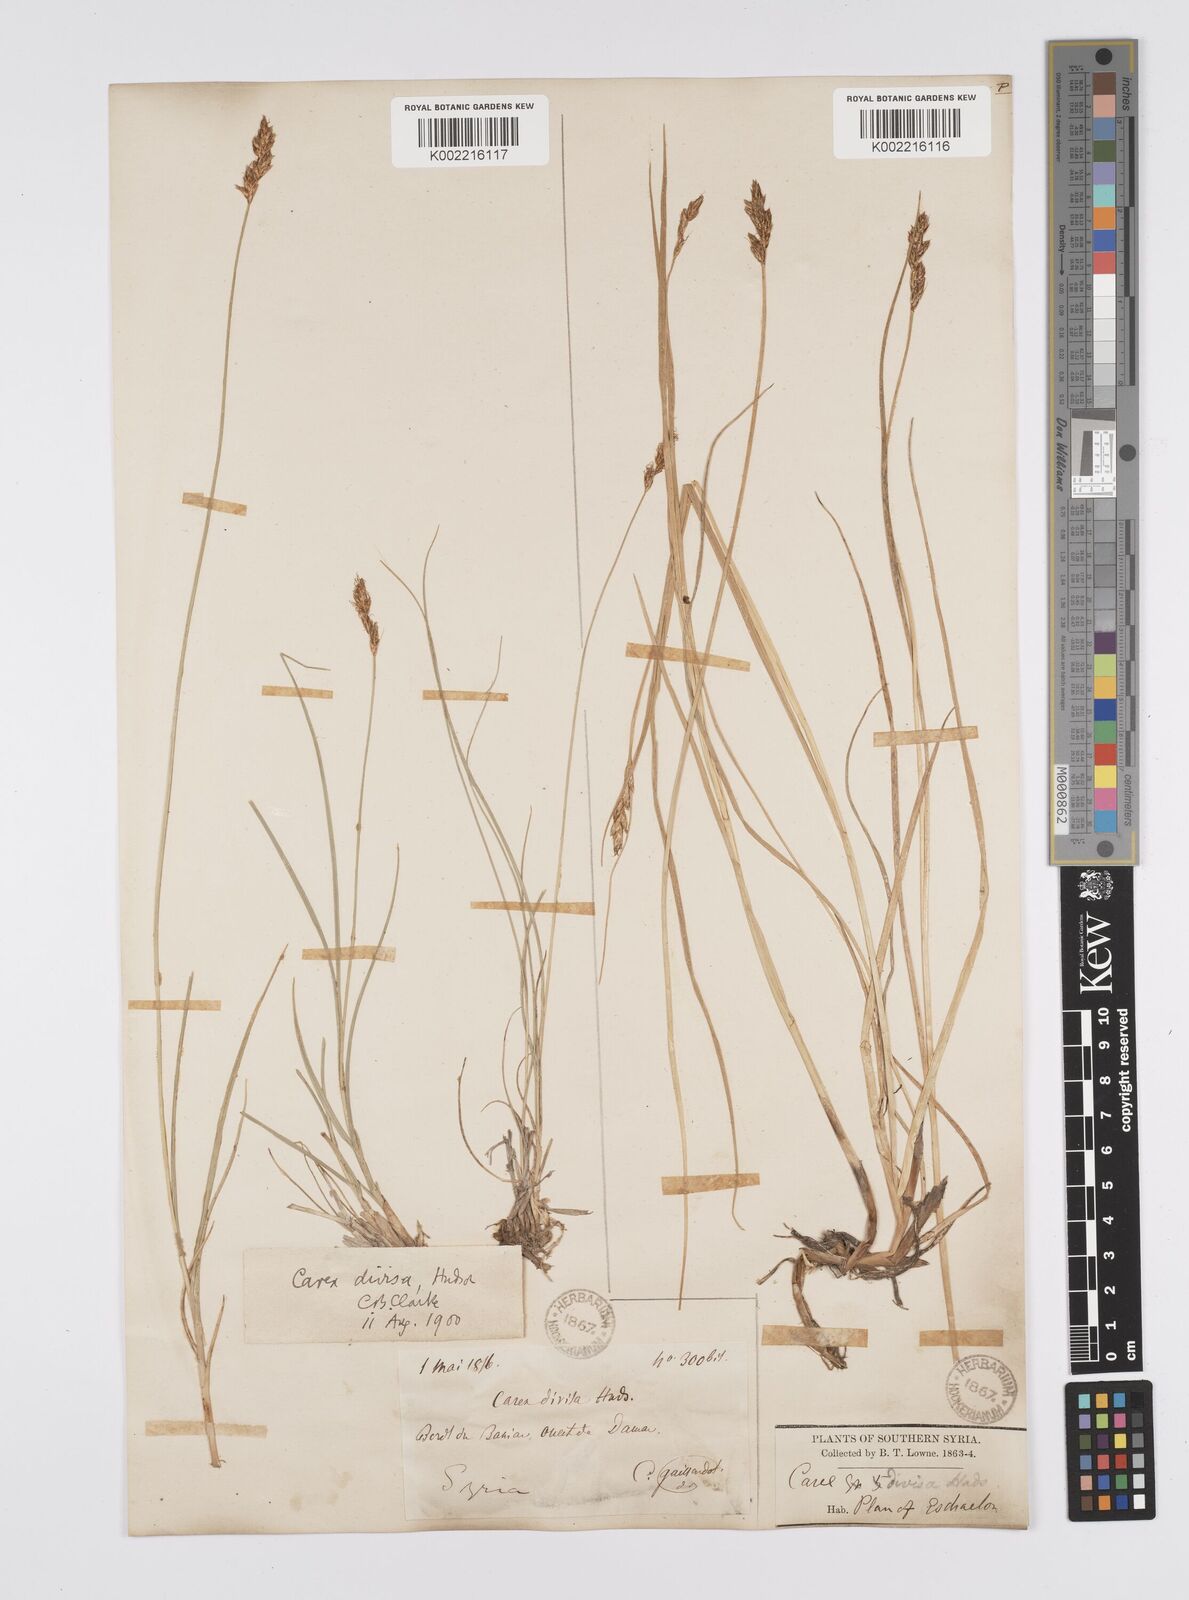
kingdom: Plantae
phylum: Tracheophyta
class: Liliopsida
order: Poales
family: Cyperaceae
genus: Carex
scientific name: Carex divisa
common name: Divided sedge
